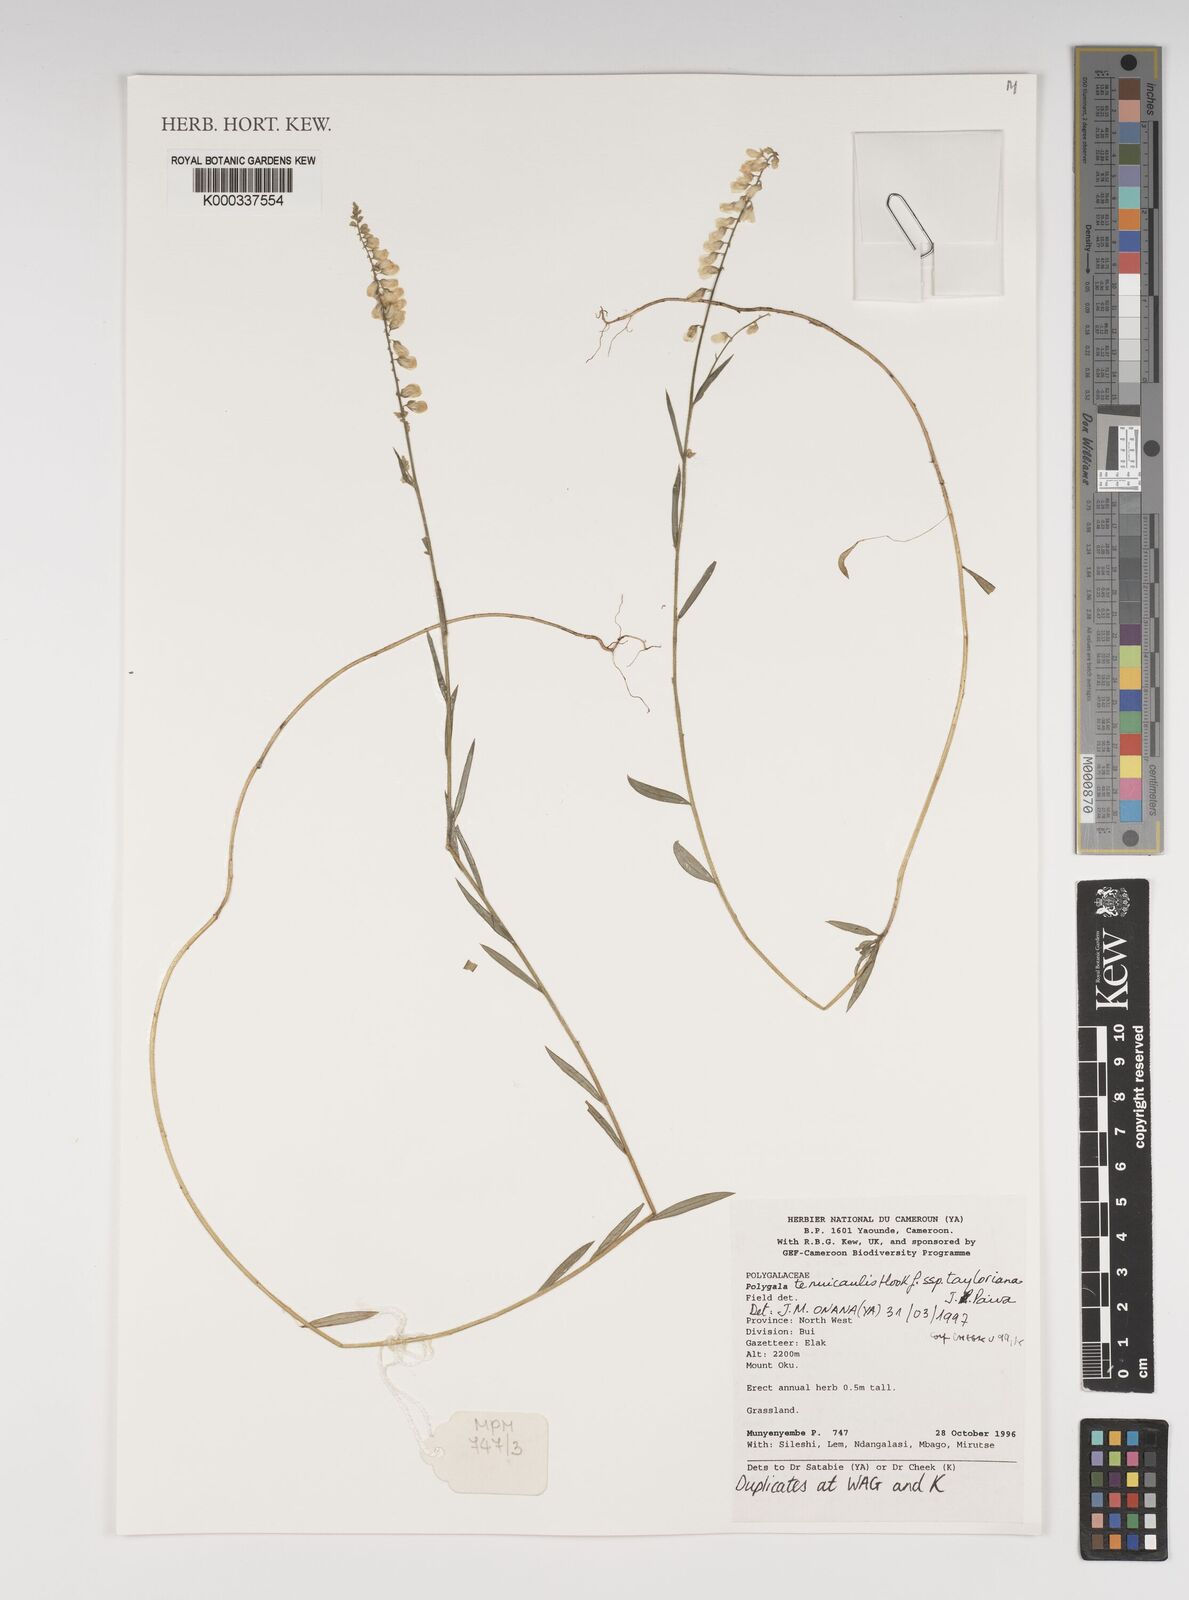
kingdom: Plantae
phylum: Tracheophyta
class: Magnoliopsida
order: Fabales
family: Polygalaceae
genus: Polygala
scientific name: Polygala tenuicaulis
